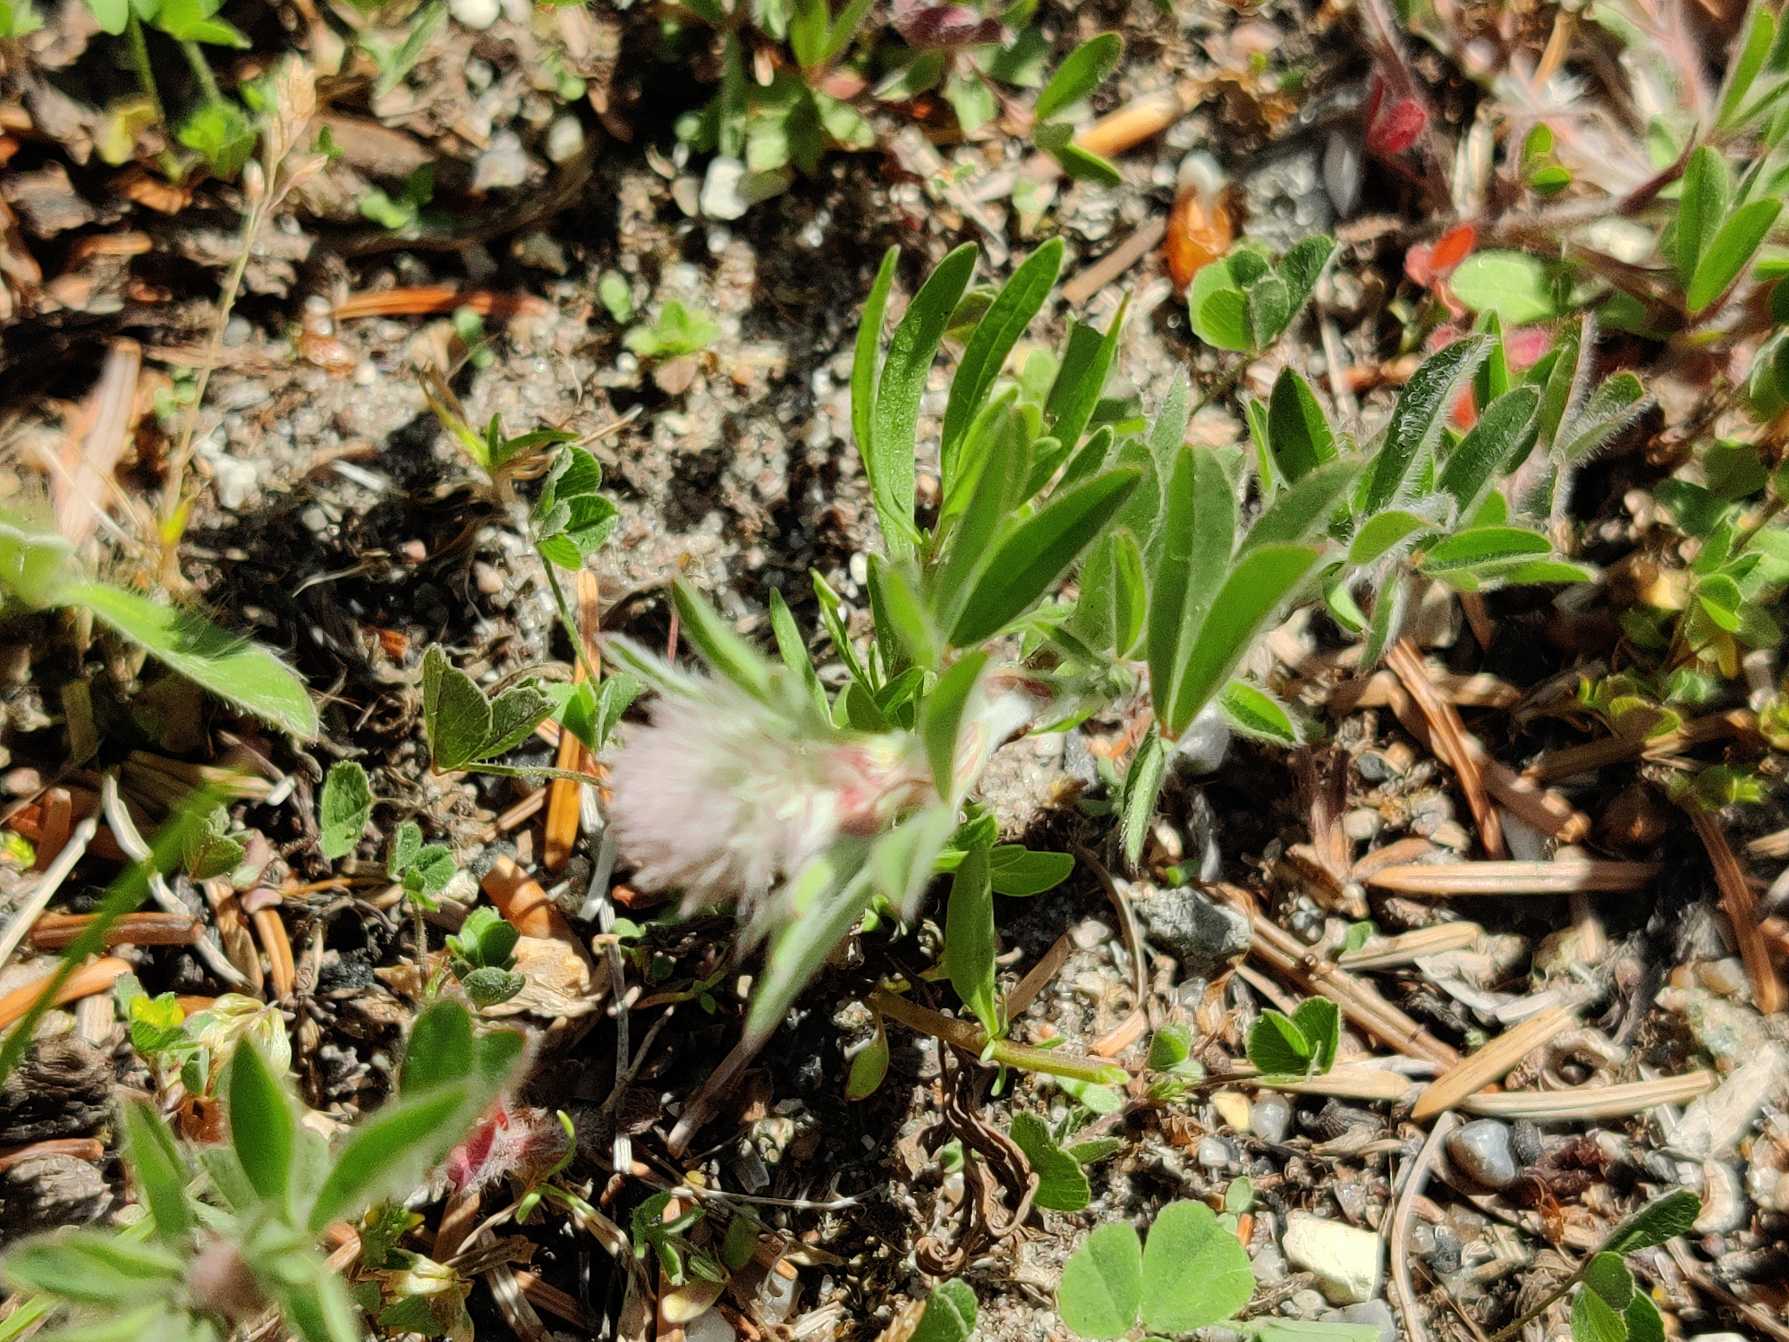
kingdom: Plantae
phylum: Tracheophyta
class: Magnoliopsida
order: Fabales
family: Fabaceae
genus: Trifolium
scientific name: Trifolium arvense
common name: Hare-kløver
